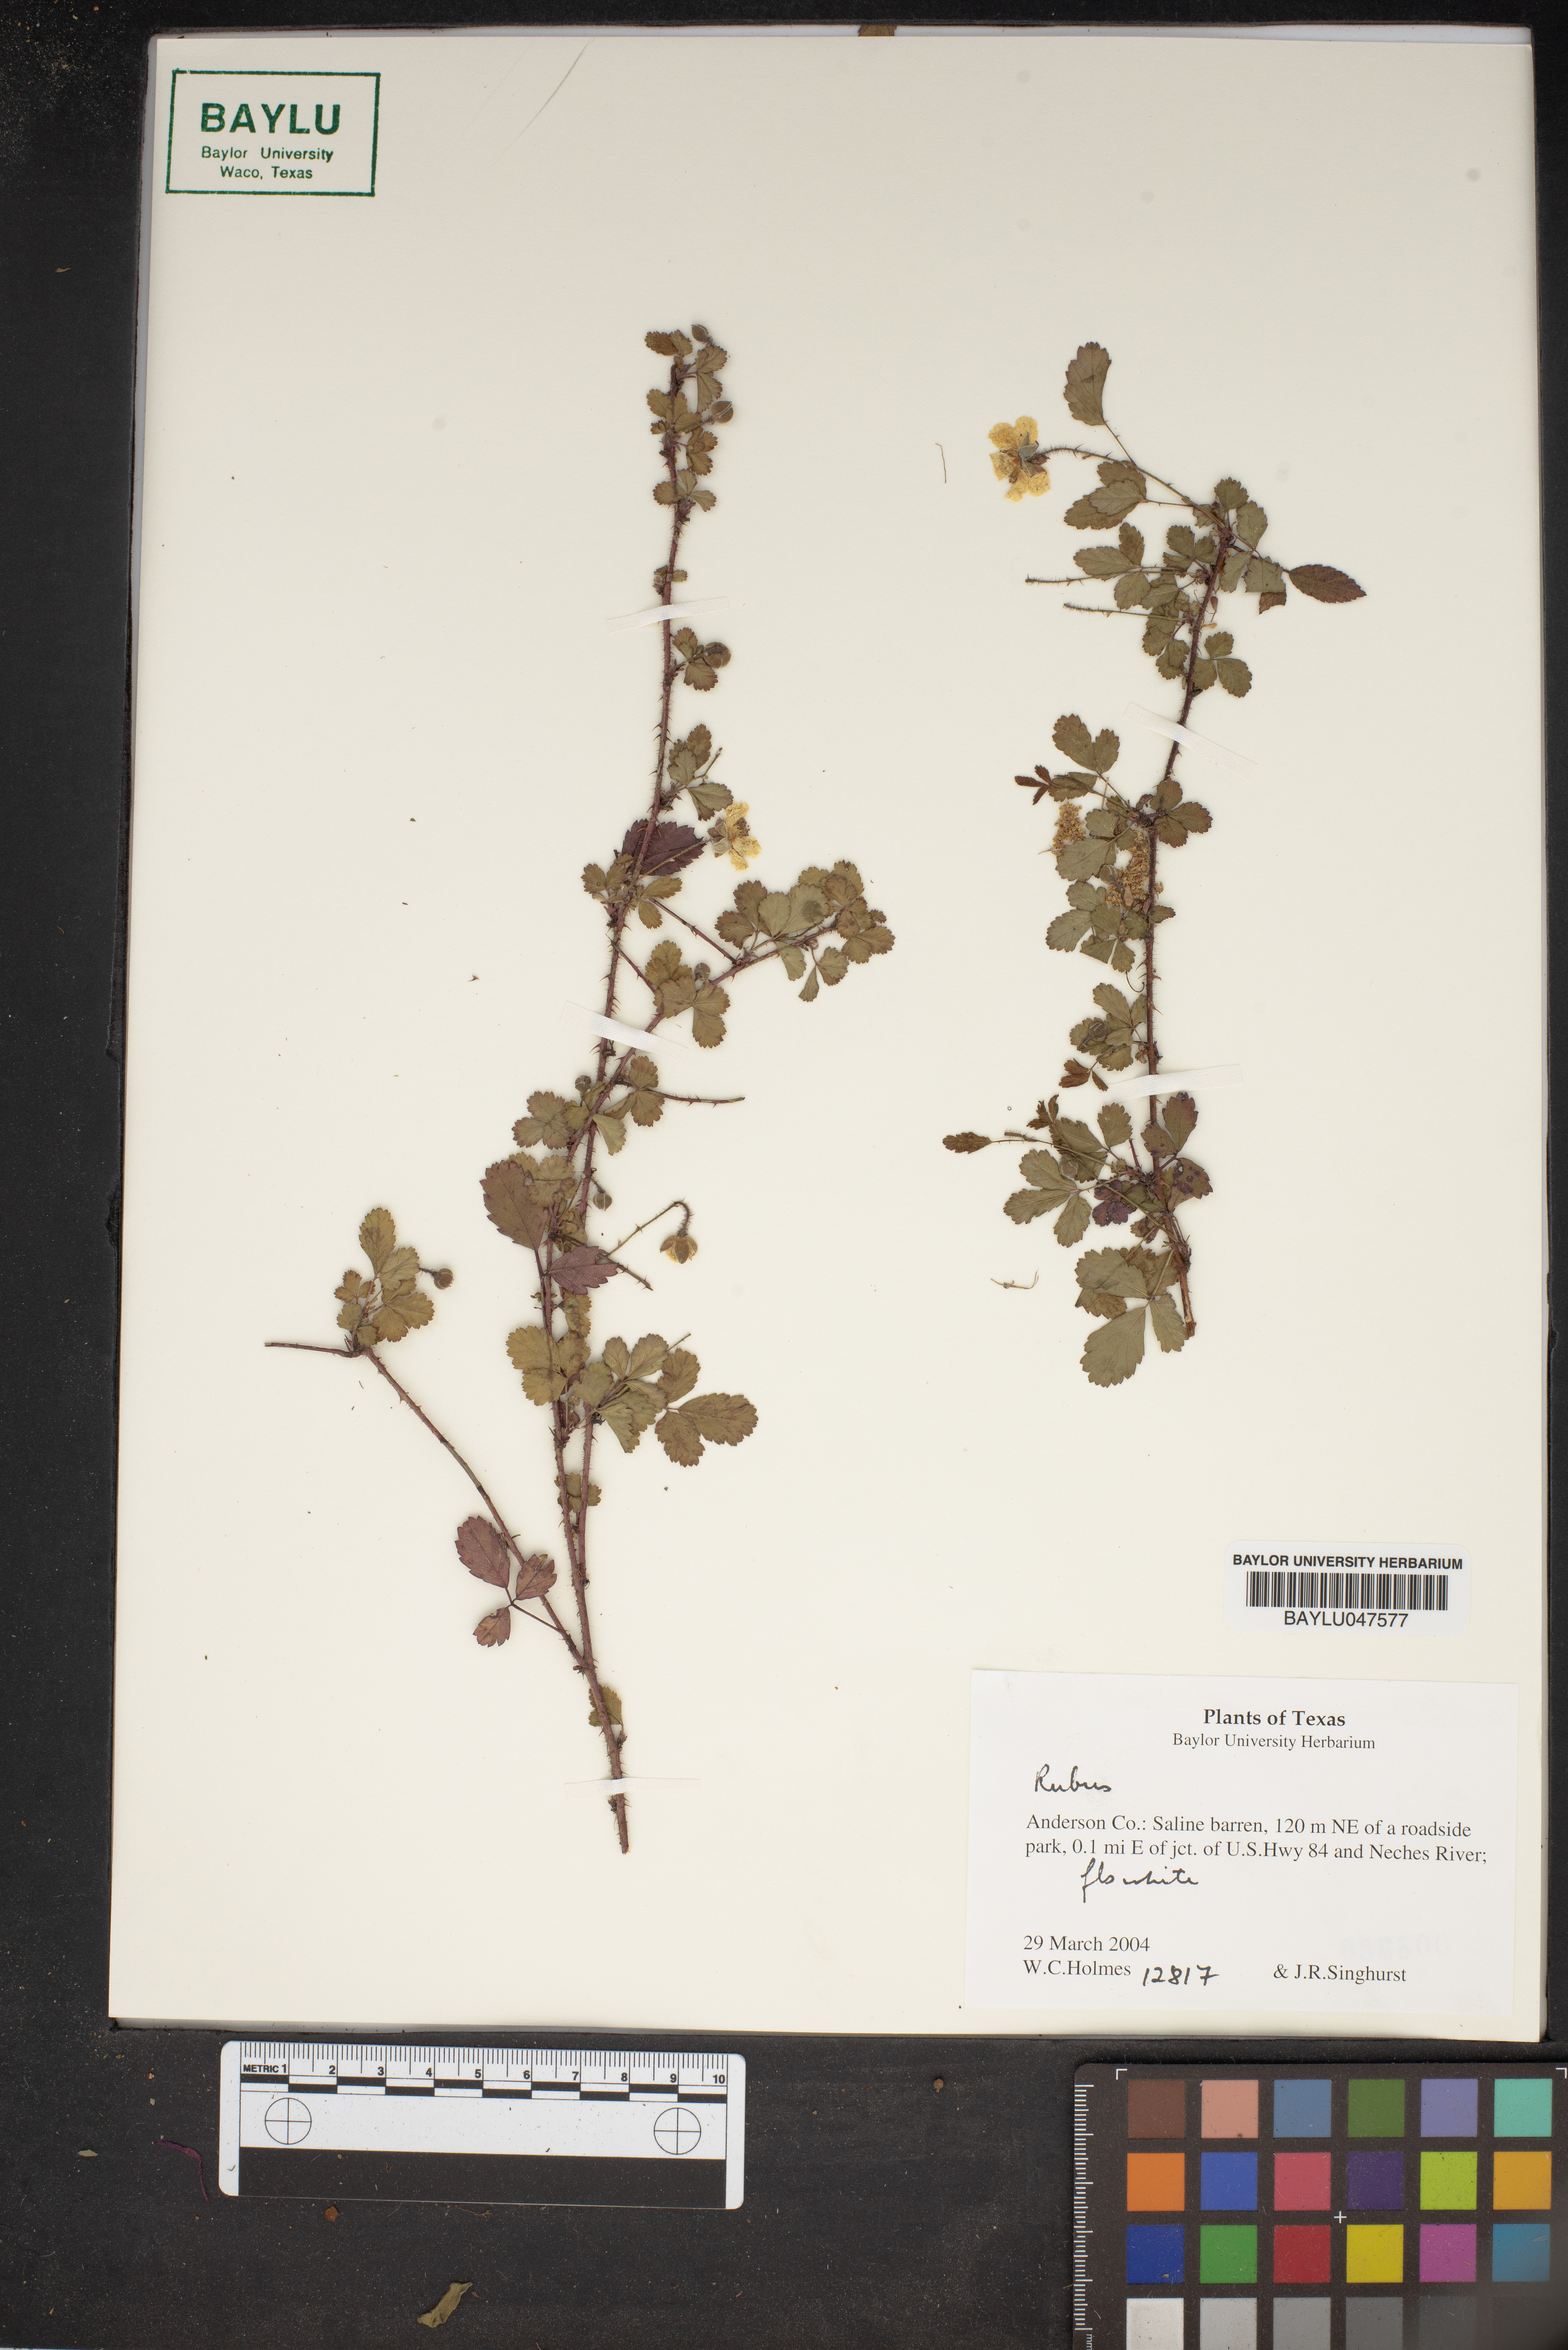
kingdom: Plantae
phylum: Tracheophyta
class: Magnoliopsida
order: Rosales
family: Rosaceae
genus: Rubus
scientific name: Rubus
